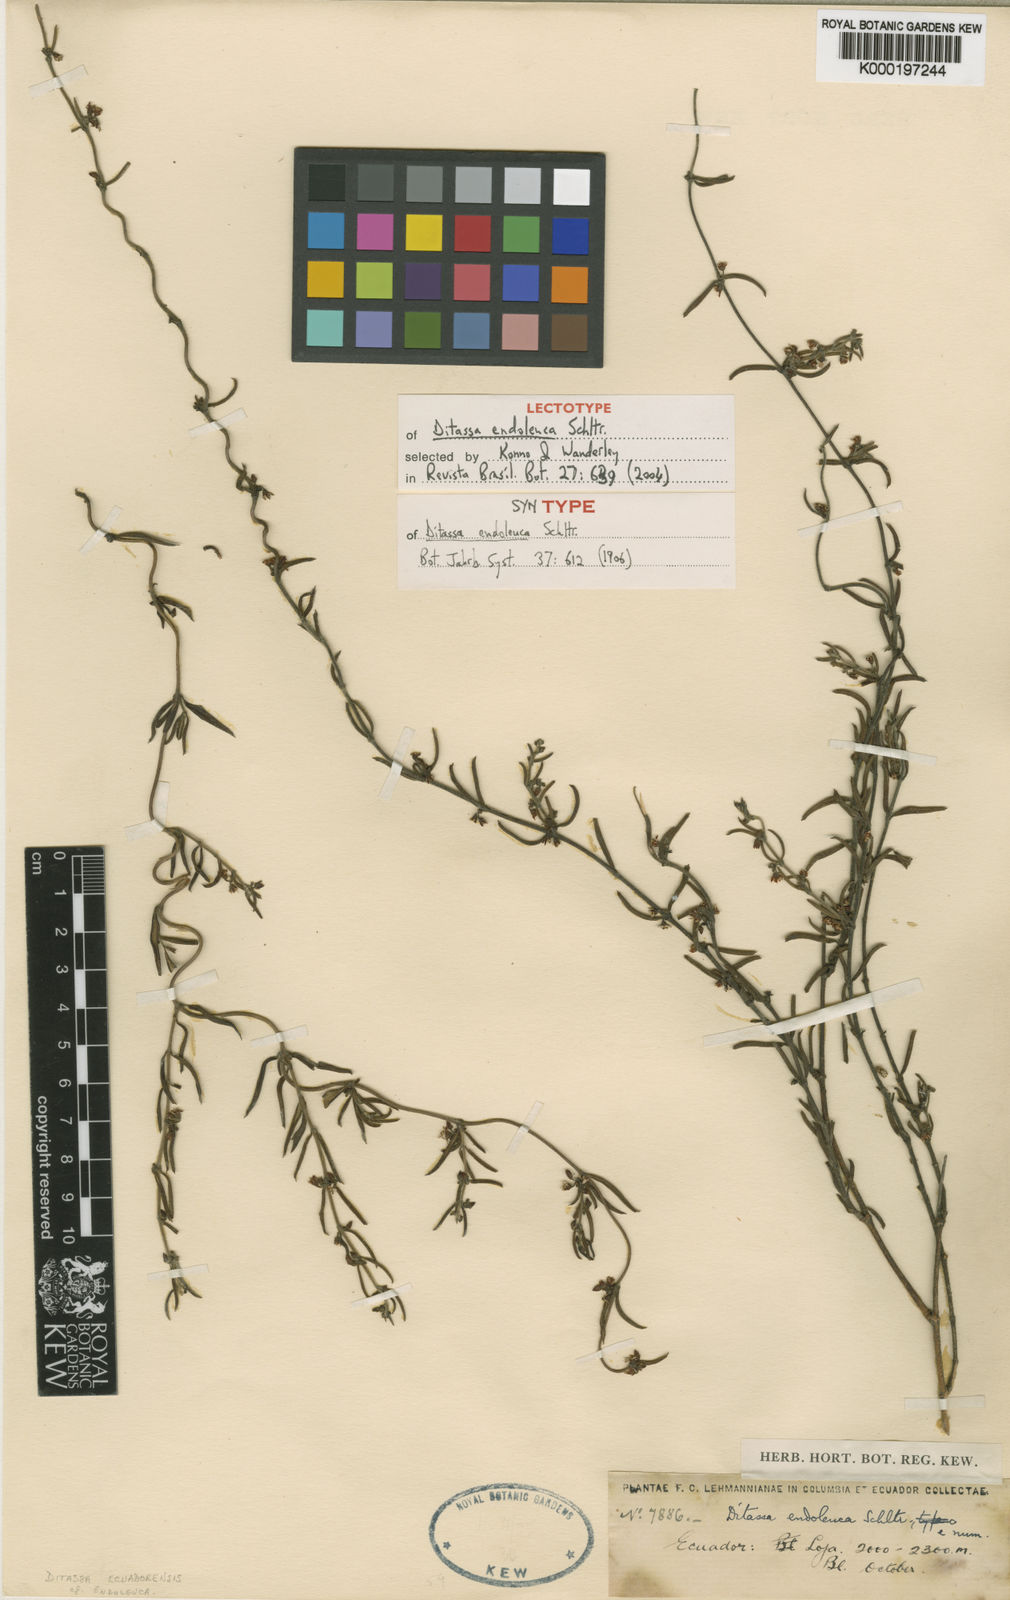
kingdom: Plantae
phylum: Tracheophyta
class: Magnoliopsida
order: Gentianales
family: Apocynaceae
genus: Ditassa
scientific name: Ditassa endoleuca
